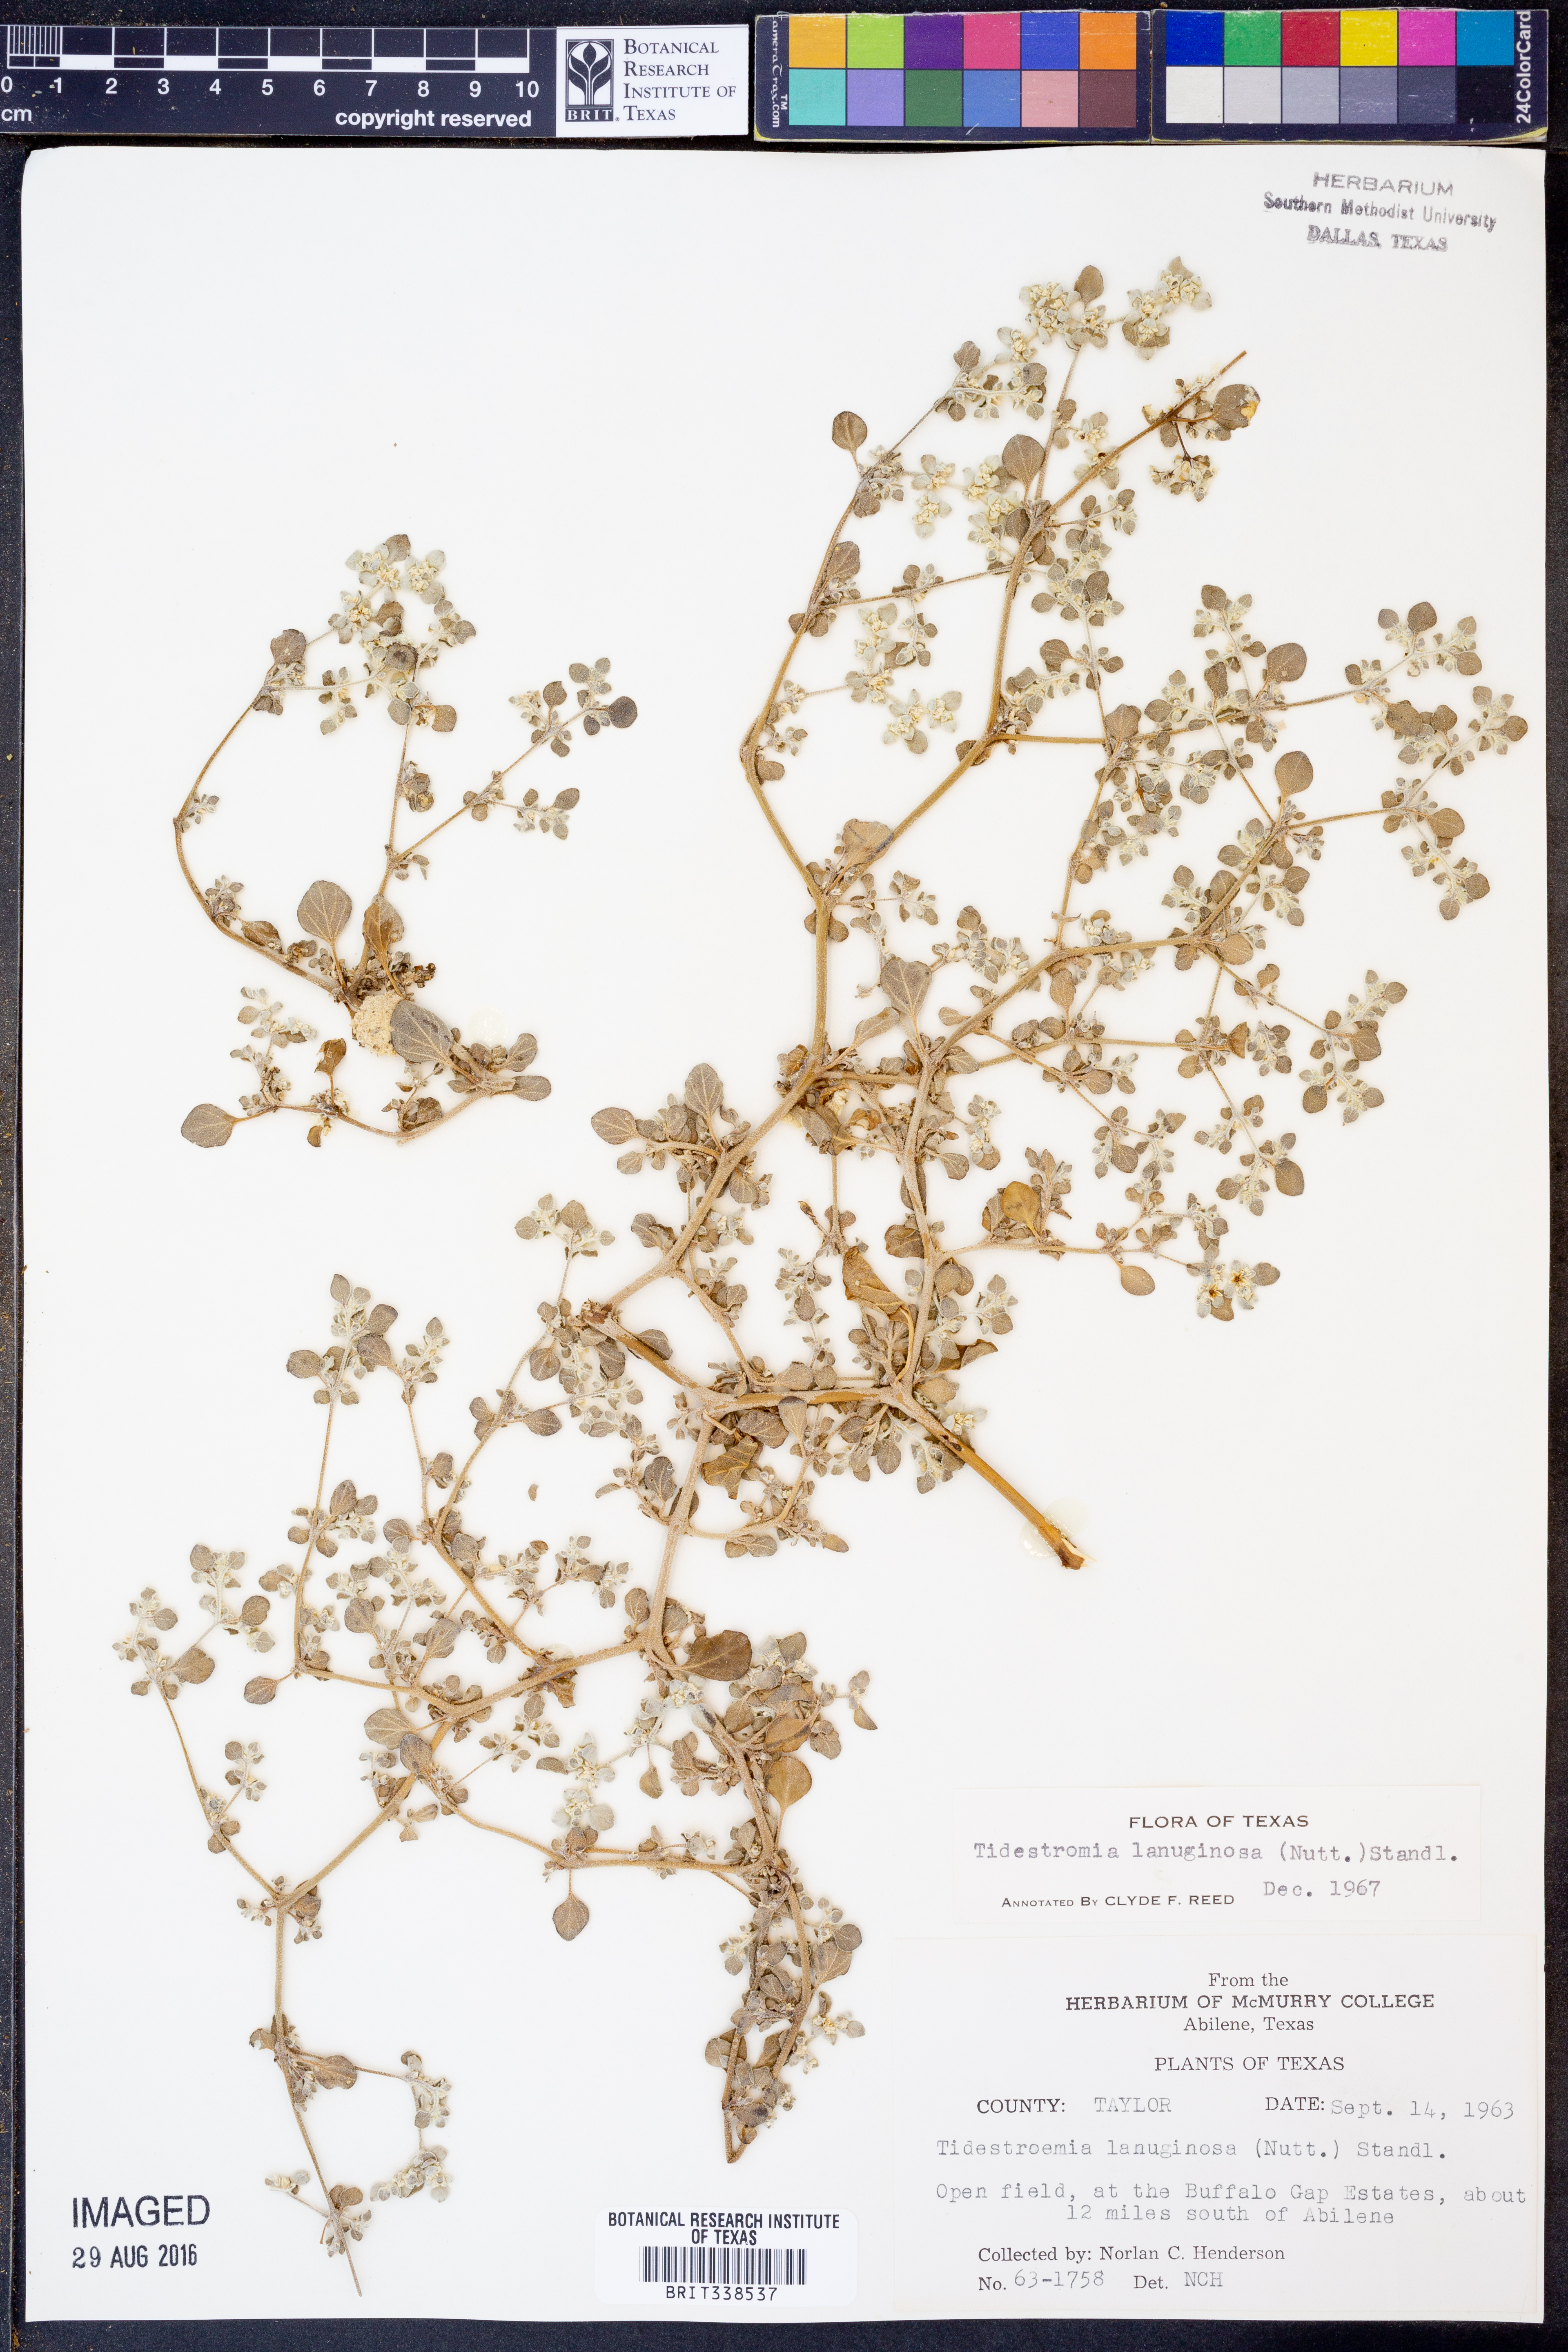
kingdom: Plantae
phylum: Tracheophyta
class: Magnoliopsida
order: Caryophyllales
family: Amaranthaceae
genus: Tidestromia
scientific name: Tidestromia lanuginosa
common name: Woolly tidestromia
